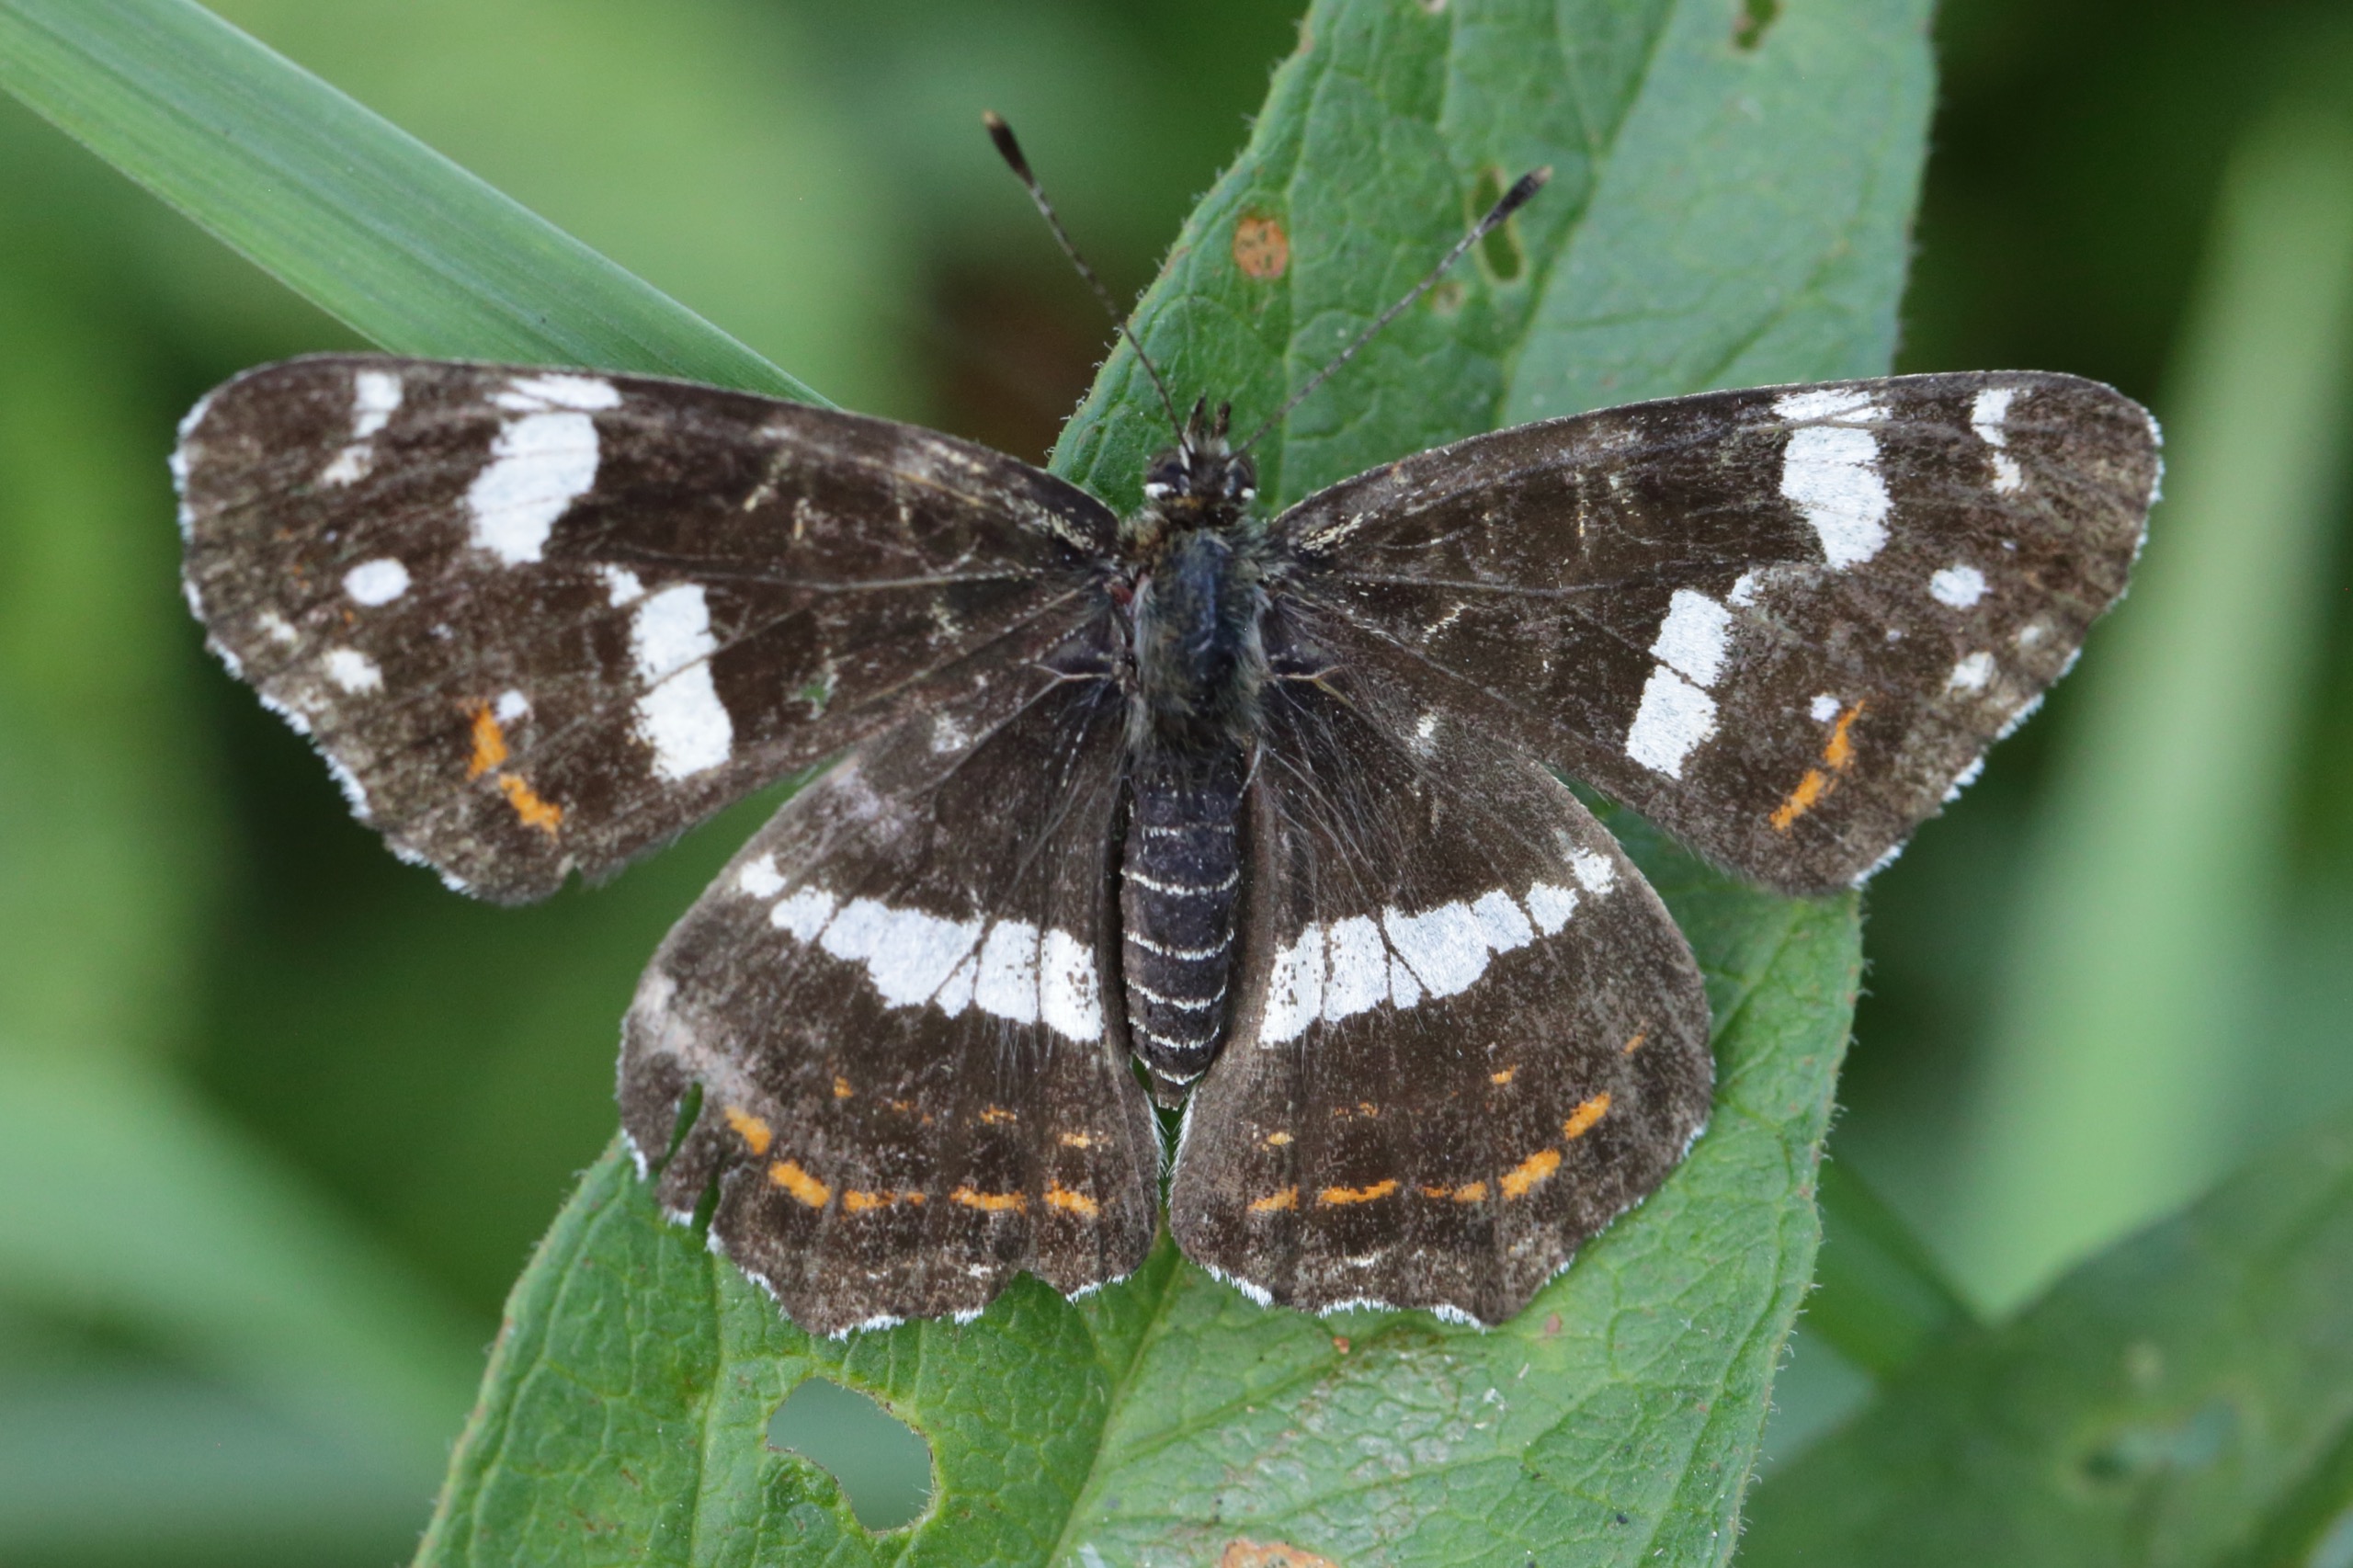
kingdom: Animalia
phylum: Arthropoda
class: Insecta
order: Lepidoptera
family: Nymphalidae
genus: Araschnia
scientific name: Araschnia levana
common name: Nældesommerfugl
